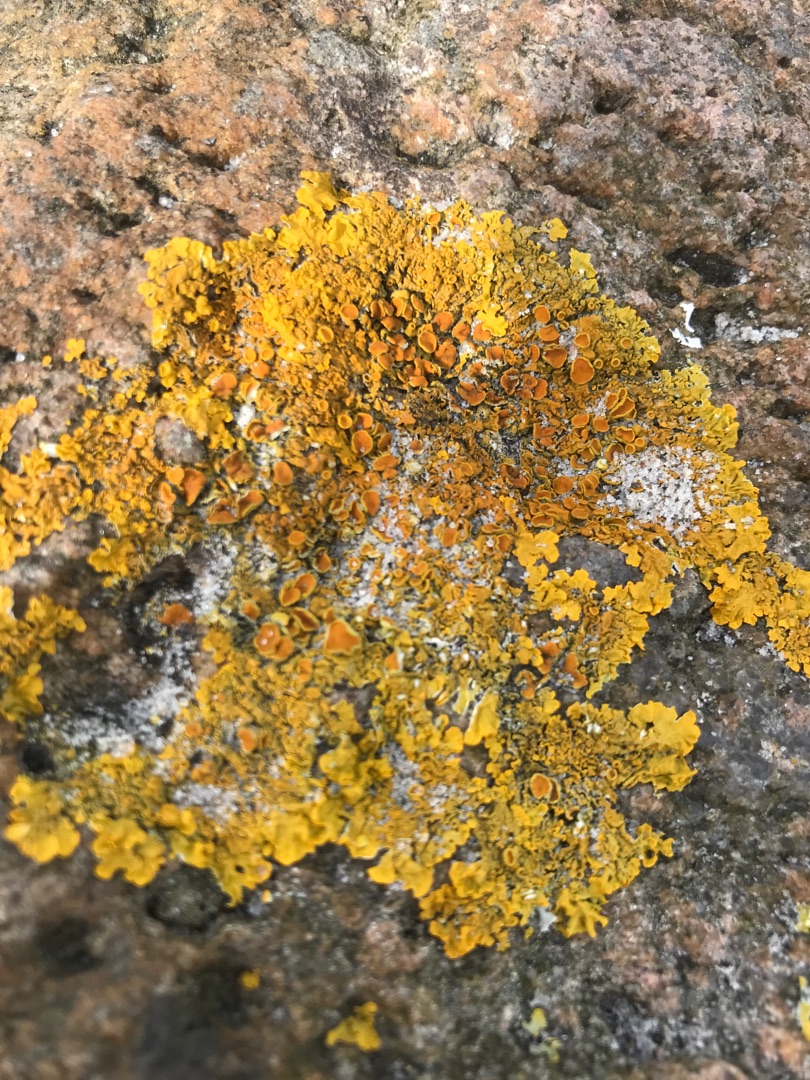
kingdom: Fungi
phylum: Ascomycota
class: Lecanoromycetes
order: Teloschistales
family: Teloschistaceae
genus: Xanthoria
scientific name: Xanthoria parietina
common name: Almindelig væggelav
